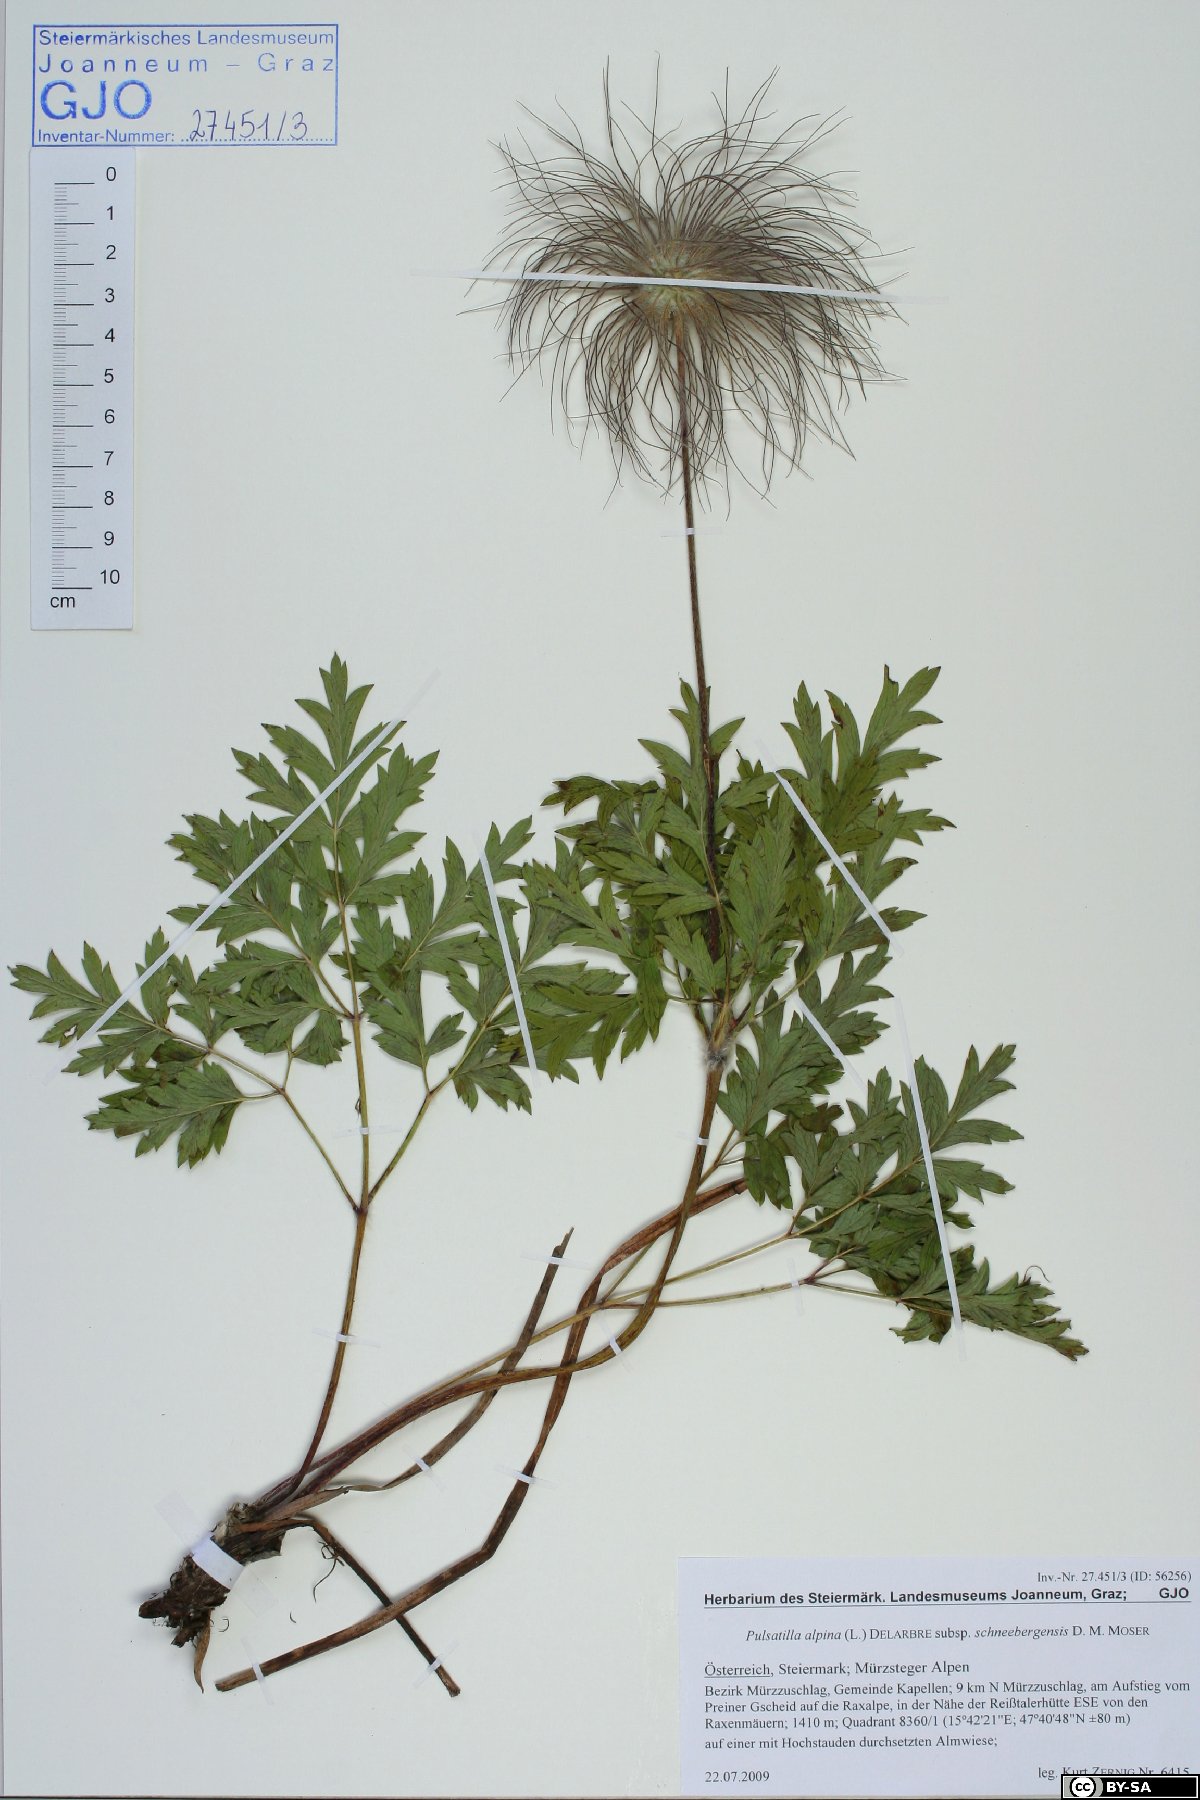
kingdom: Plantae
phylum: Tracheophyta
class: Magnoliopsida
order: Ranunculales
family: Ranunculaceae
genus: Pulsatilla
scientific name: Pulsatilla alpina
